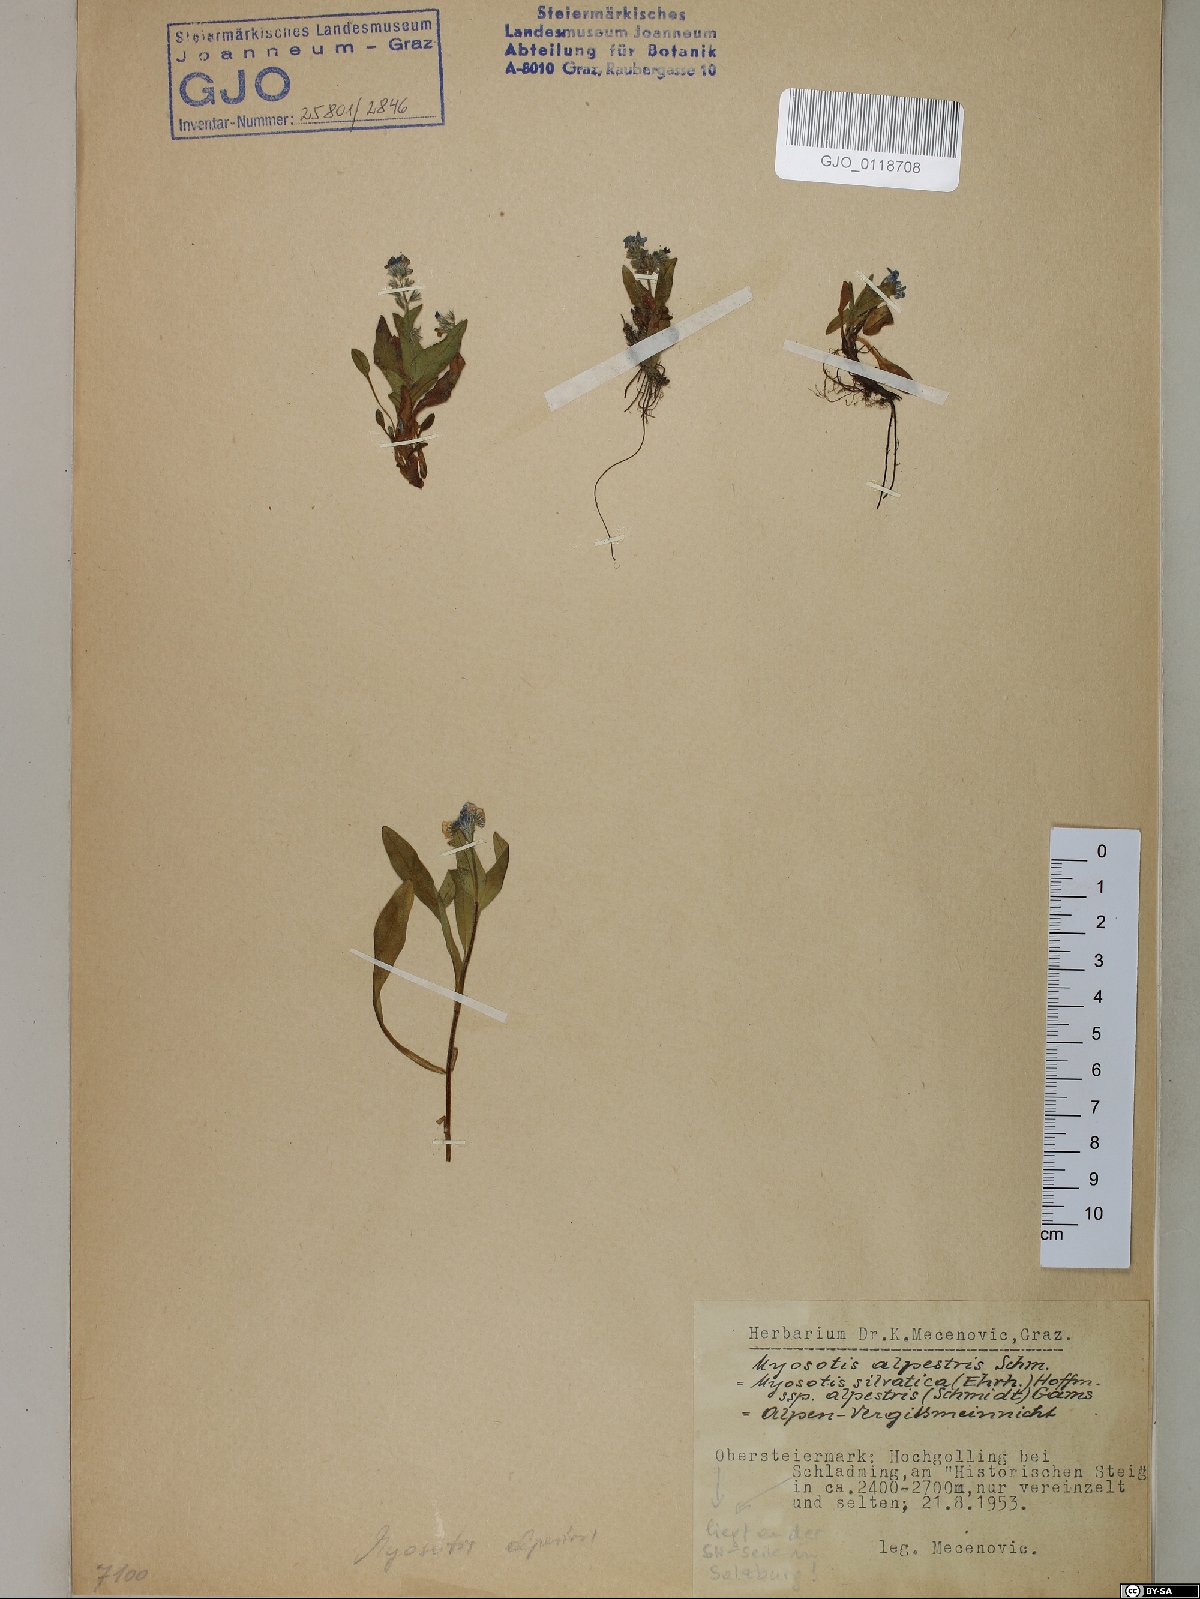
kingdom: Plantae
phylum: Tracheophyta
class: Magnoliopsida
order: Boraginales
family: Boraginaceae
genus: Myosotis
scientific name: Myosotis alpestris
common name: Alpine forget-me-not
